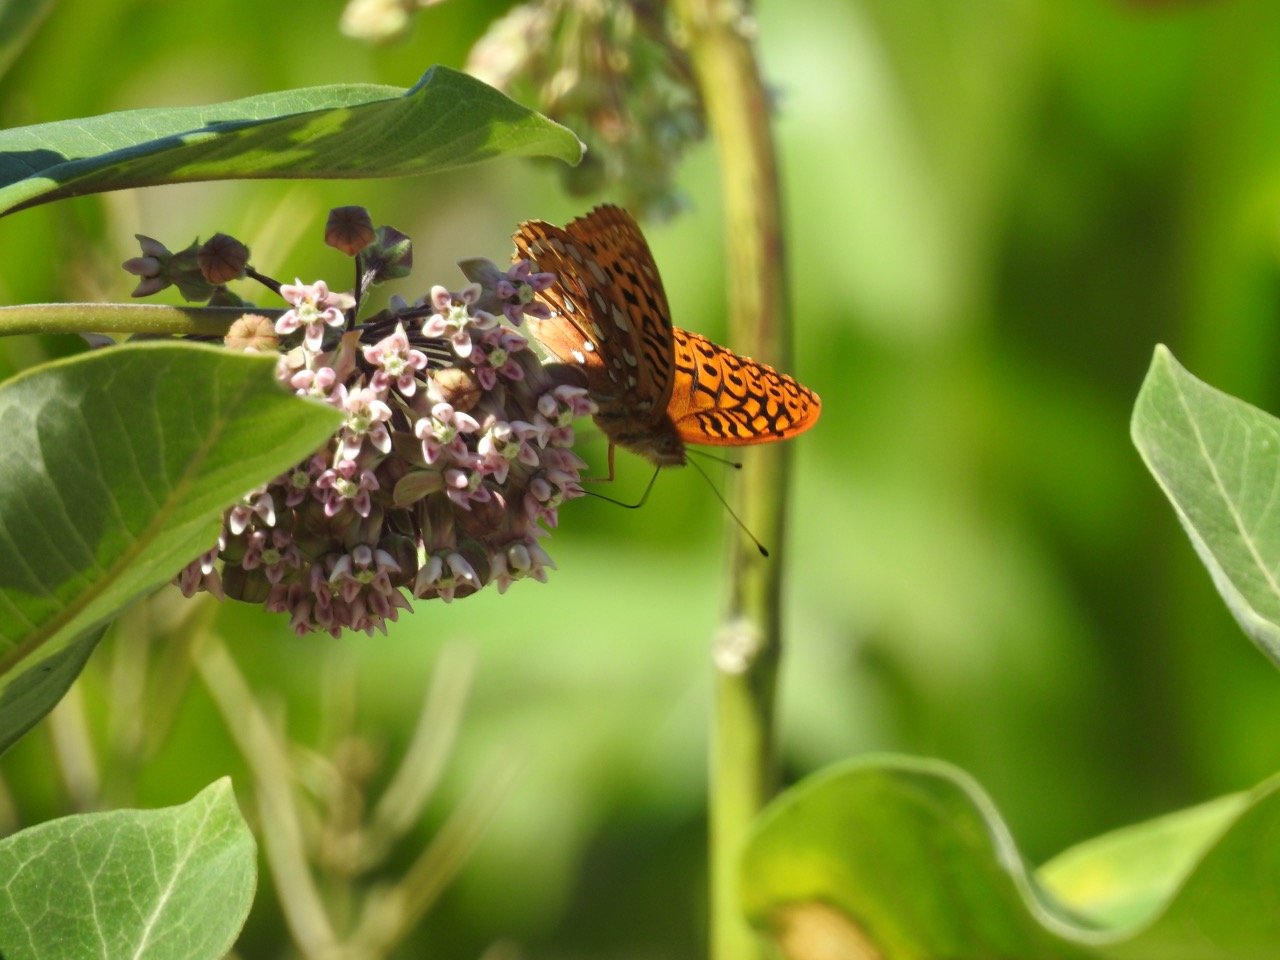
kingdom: Animalia
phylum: Arthropoda
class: Insecta
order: Lepidoptera
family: Nymphalidae
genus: Speyeria
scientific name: Speyeria cybele
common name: Great Spangled Fritillary
